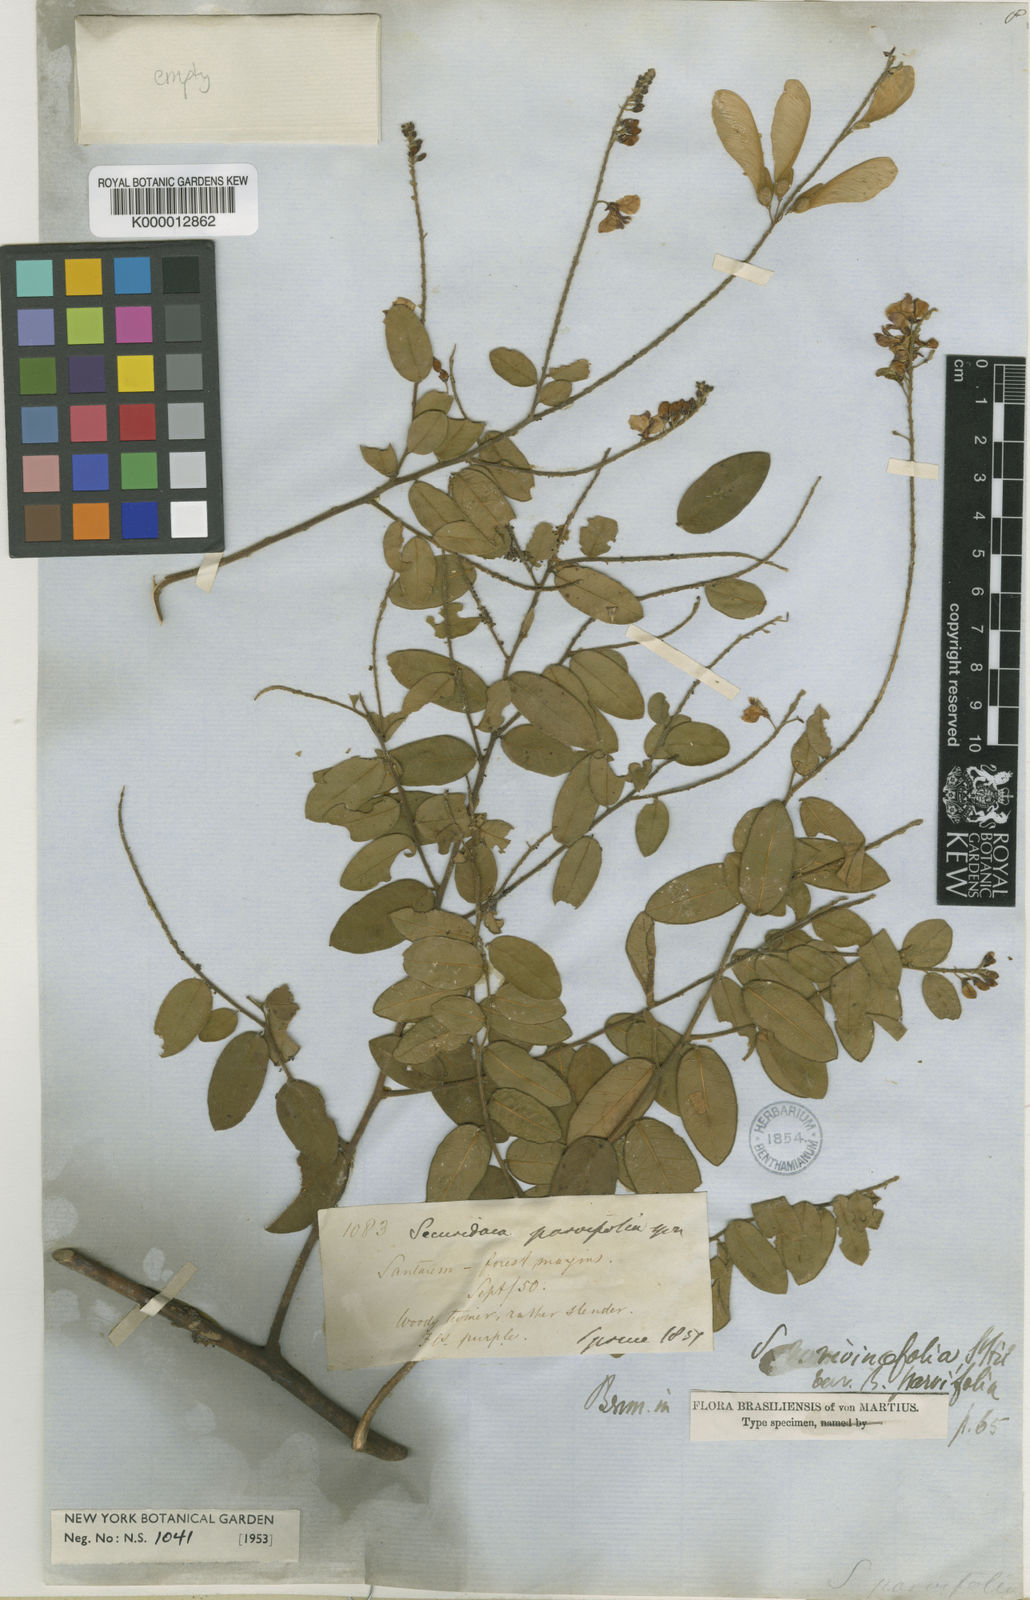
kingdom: Plantae
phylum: Tracheophyta
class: Magnoliopsida
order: Fabales
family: Polygalaceae
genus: Securidaca
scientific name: Securidaca rivinifolia
